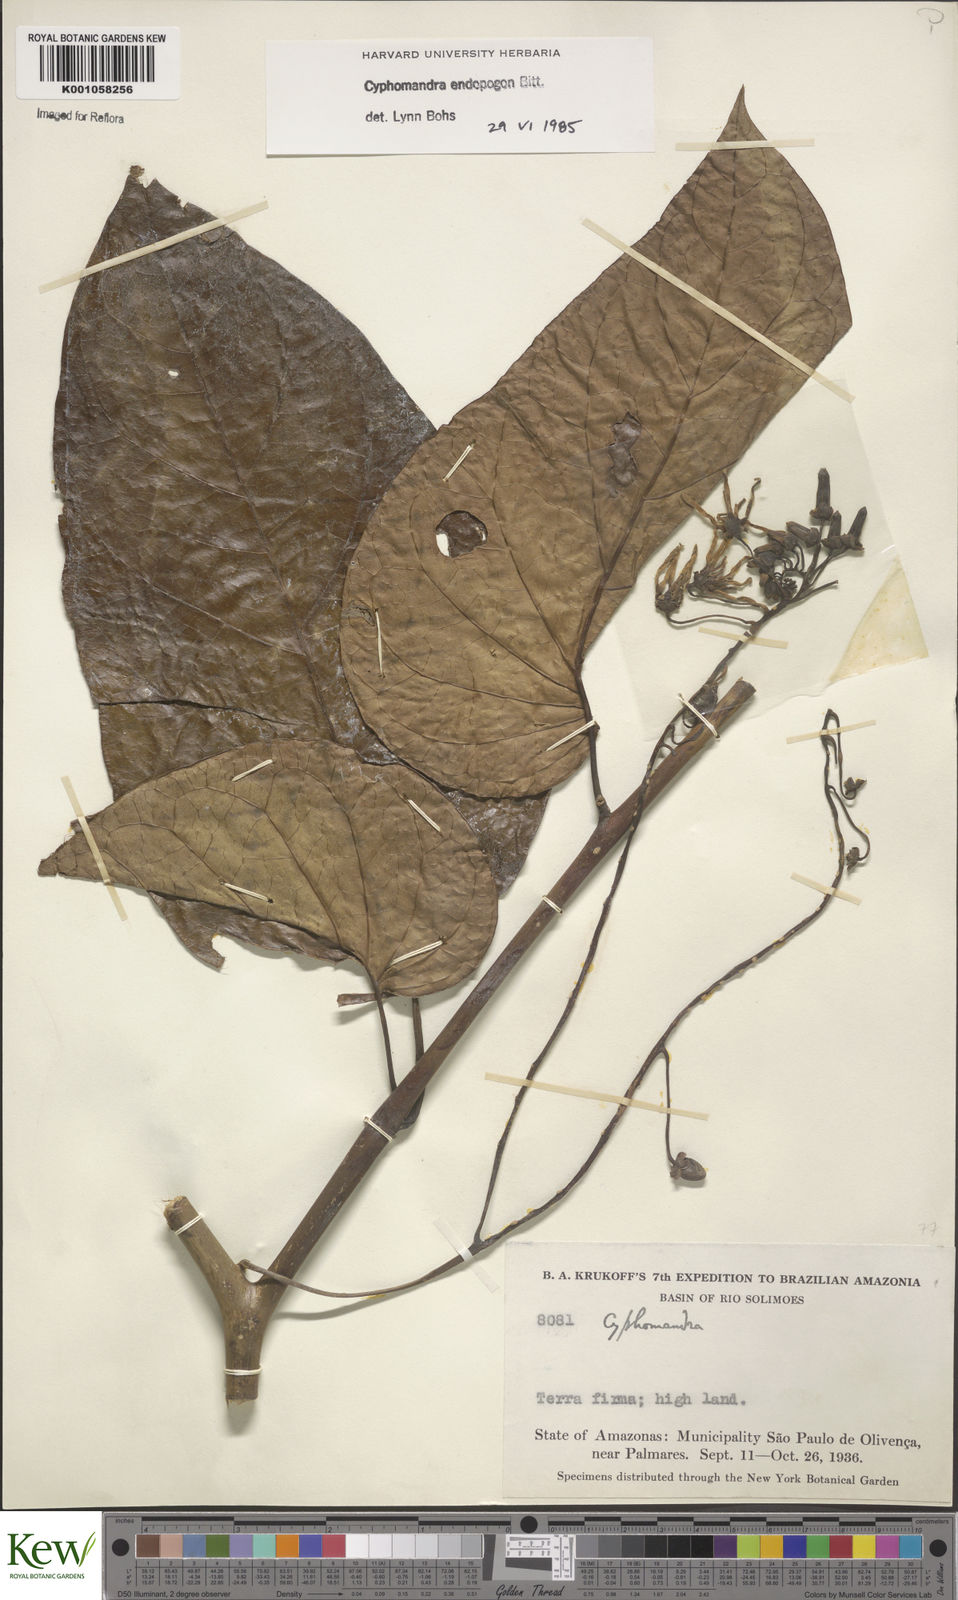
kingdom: Plantae
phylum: Tracheophyta
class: Magnoliopsida
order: Solanales
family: Solanaceae
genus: Solanum
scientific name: Solanum endopogon
